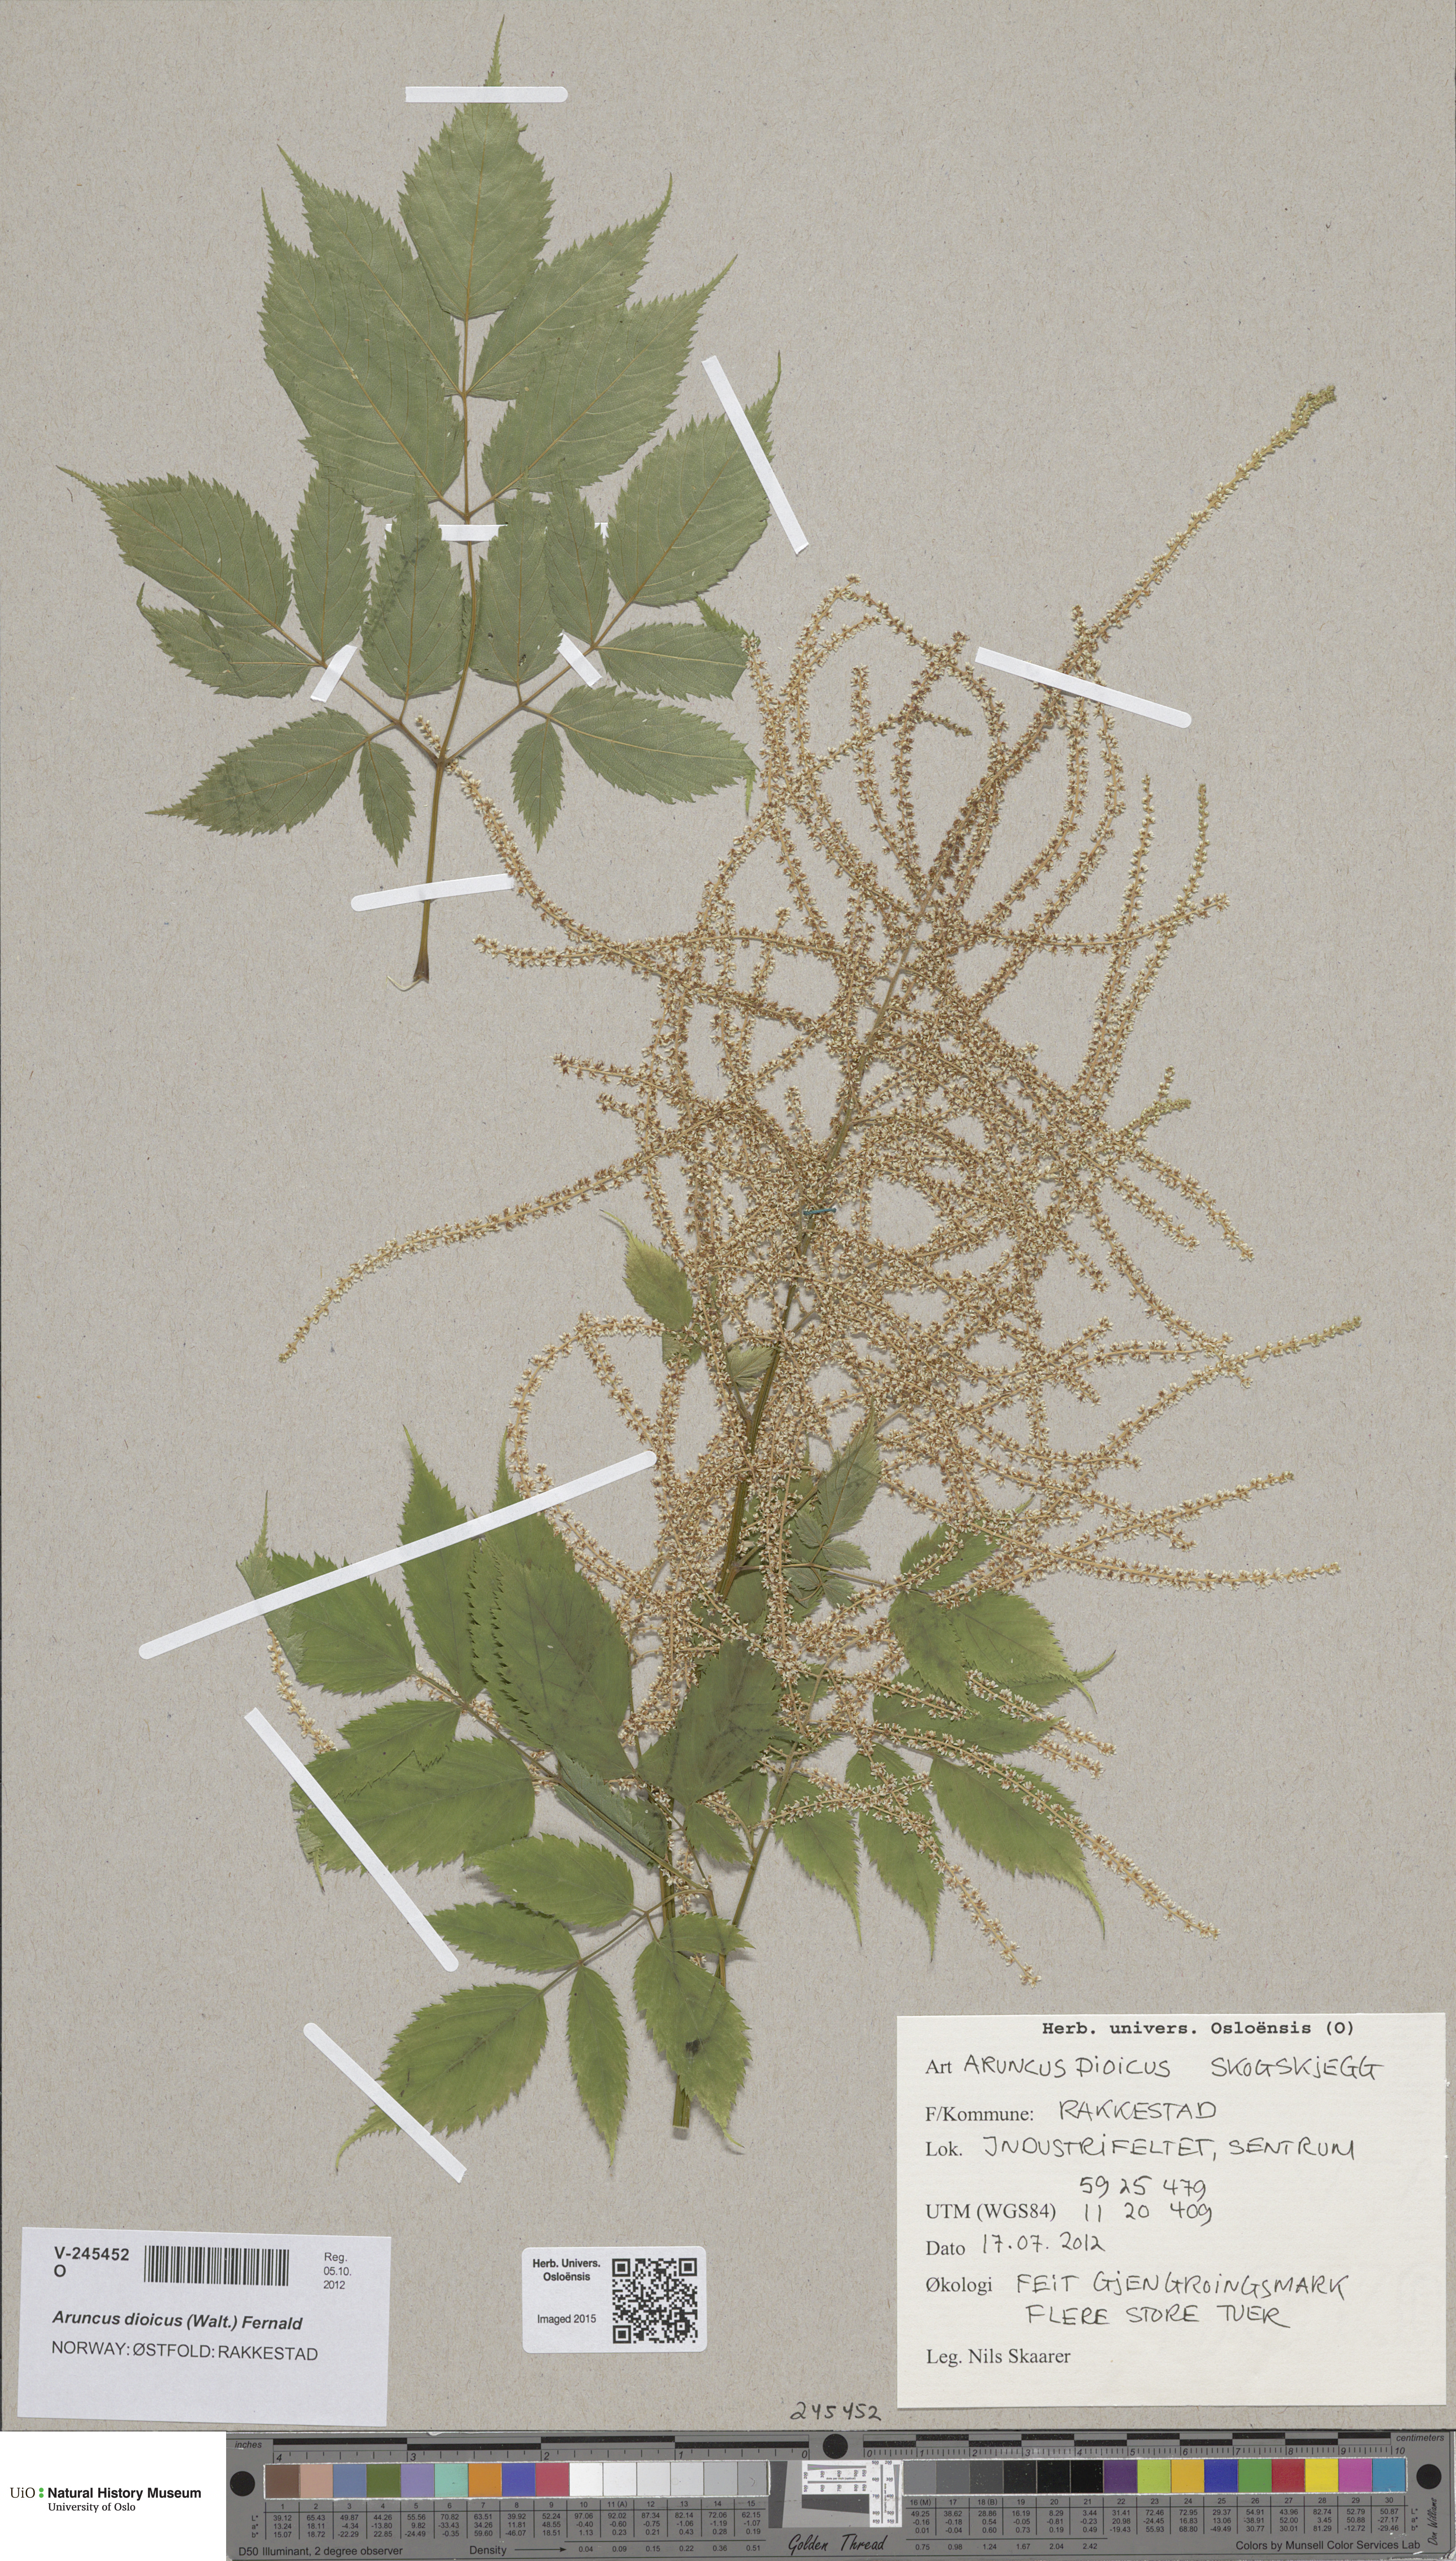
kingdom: Plantae
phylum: Tracheophyta
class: Magnoliopsida
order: Rosales
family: Rosaceae
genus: Aruncus
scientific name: Aruncus dioicus
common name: Buck's-beard
